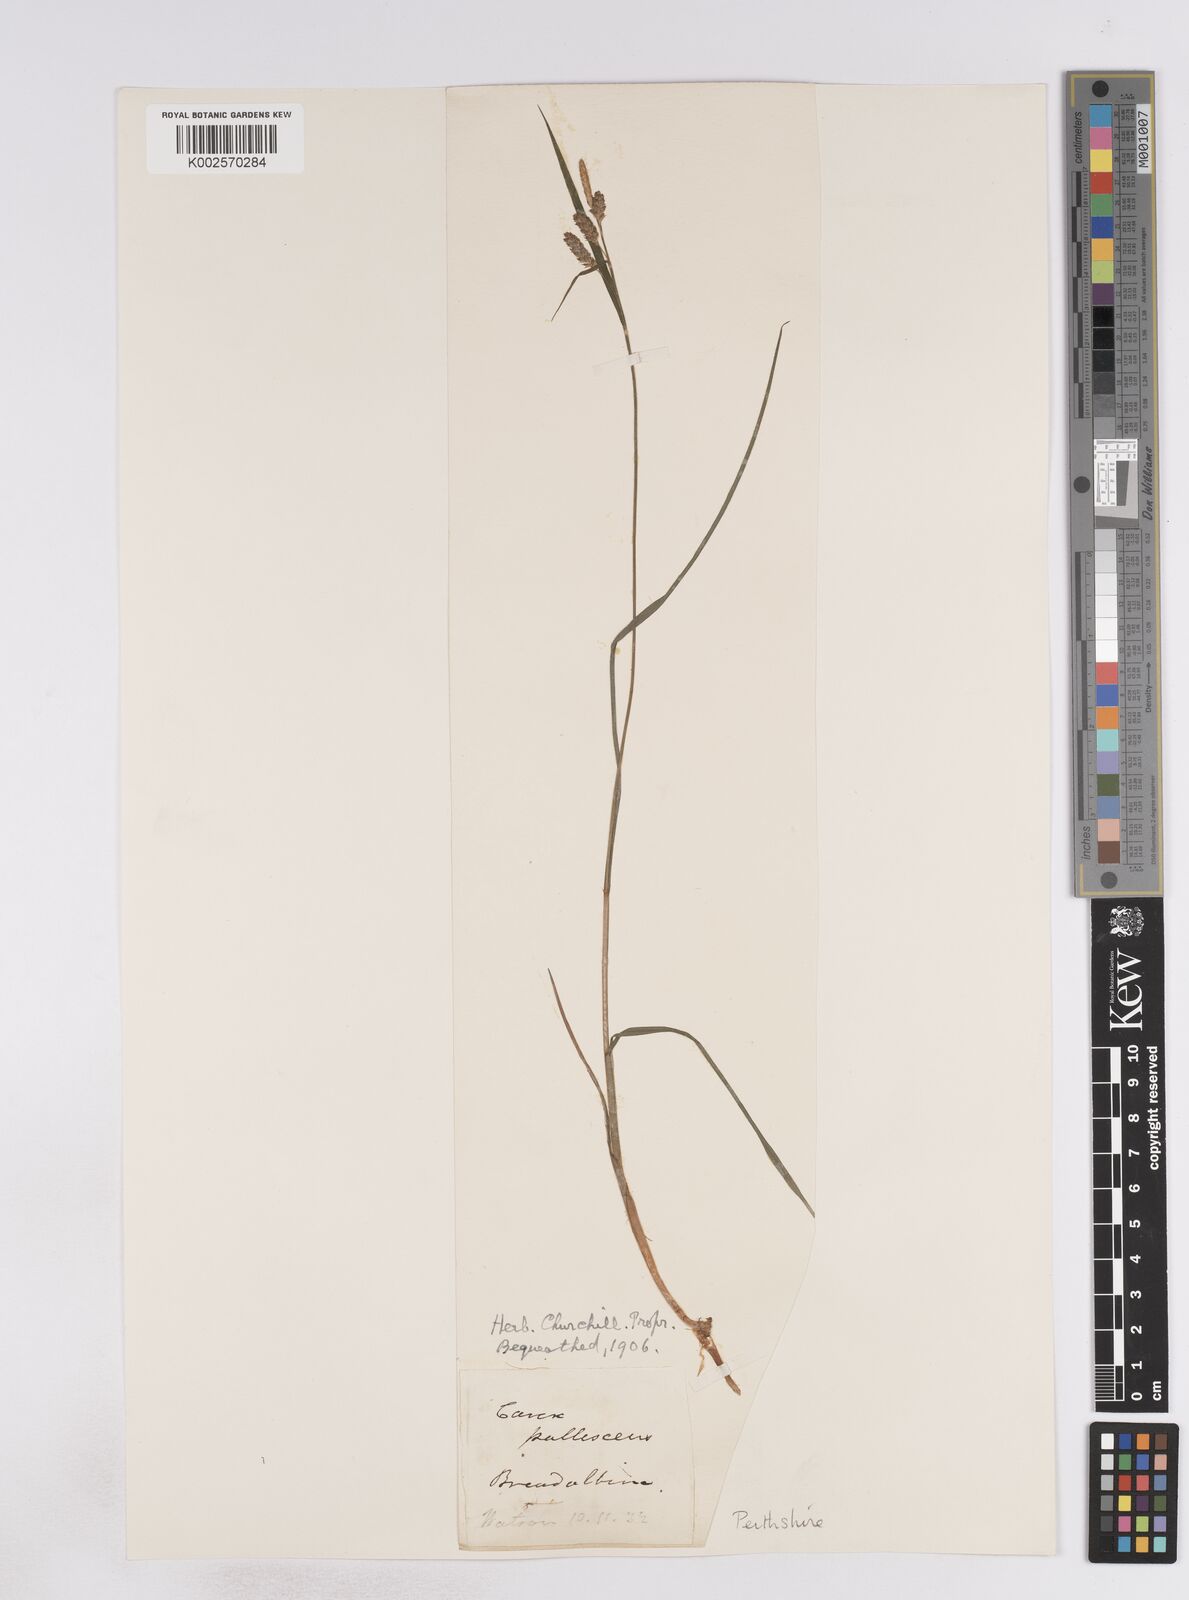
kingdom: Plantae
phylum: Tracheophyta
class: Liliopsida
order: Poales
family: Cyperaceae
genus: Carex
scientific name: Carex pallescens
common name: Pale sedge
